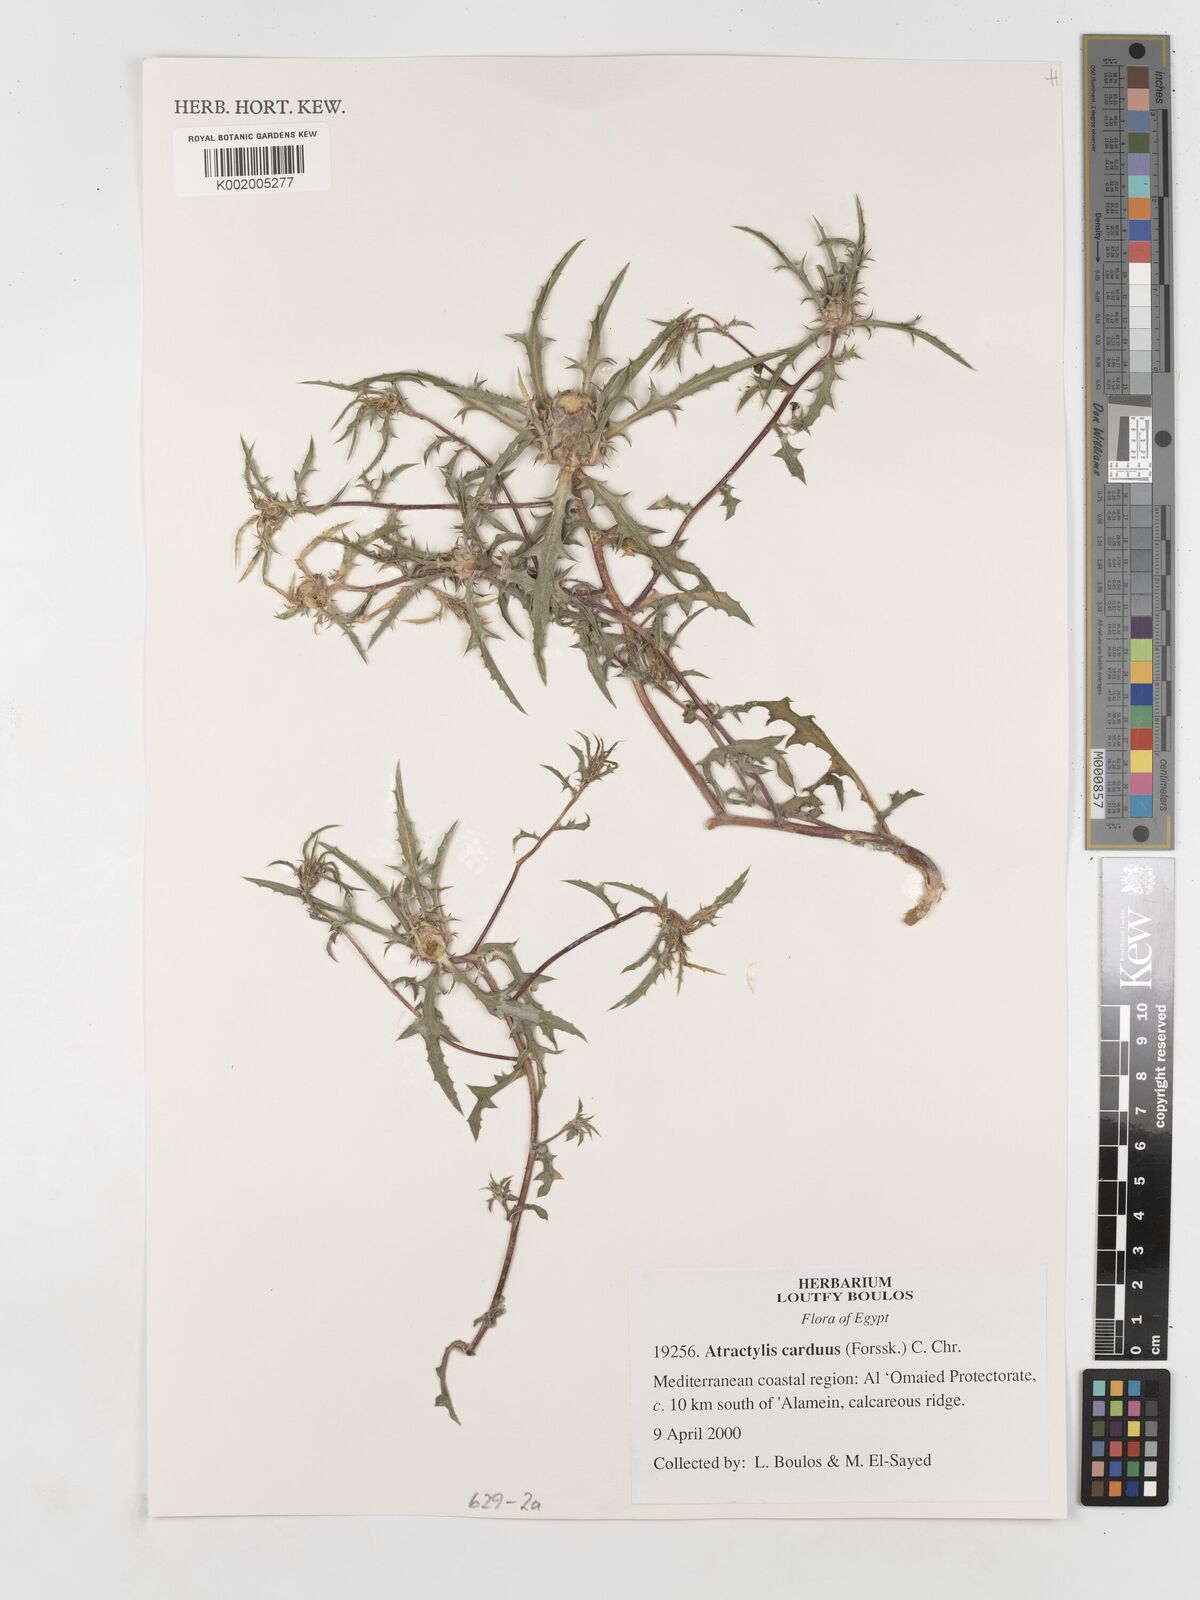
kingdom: Plantae
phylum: Tracheophyta
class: Magnoliopsida
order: Asterales
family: Asteraceae
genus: Atractylis
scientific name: Atractylis carduus
